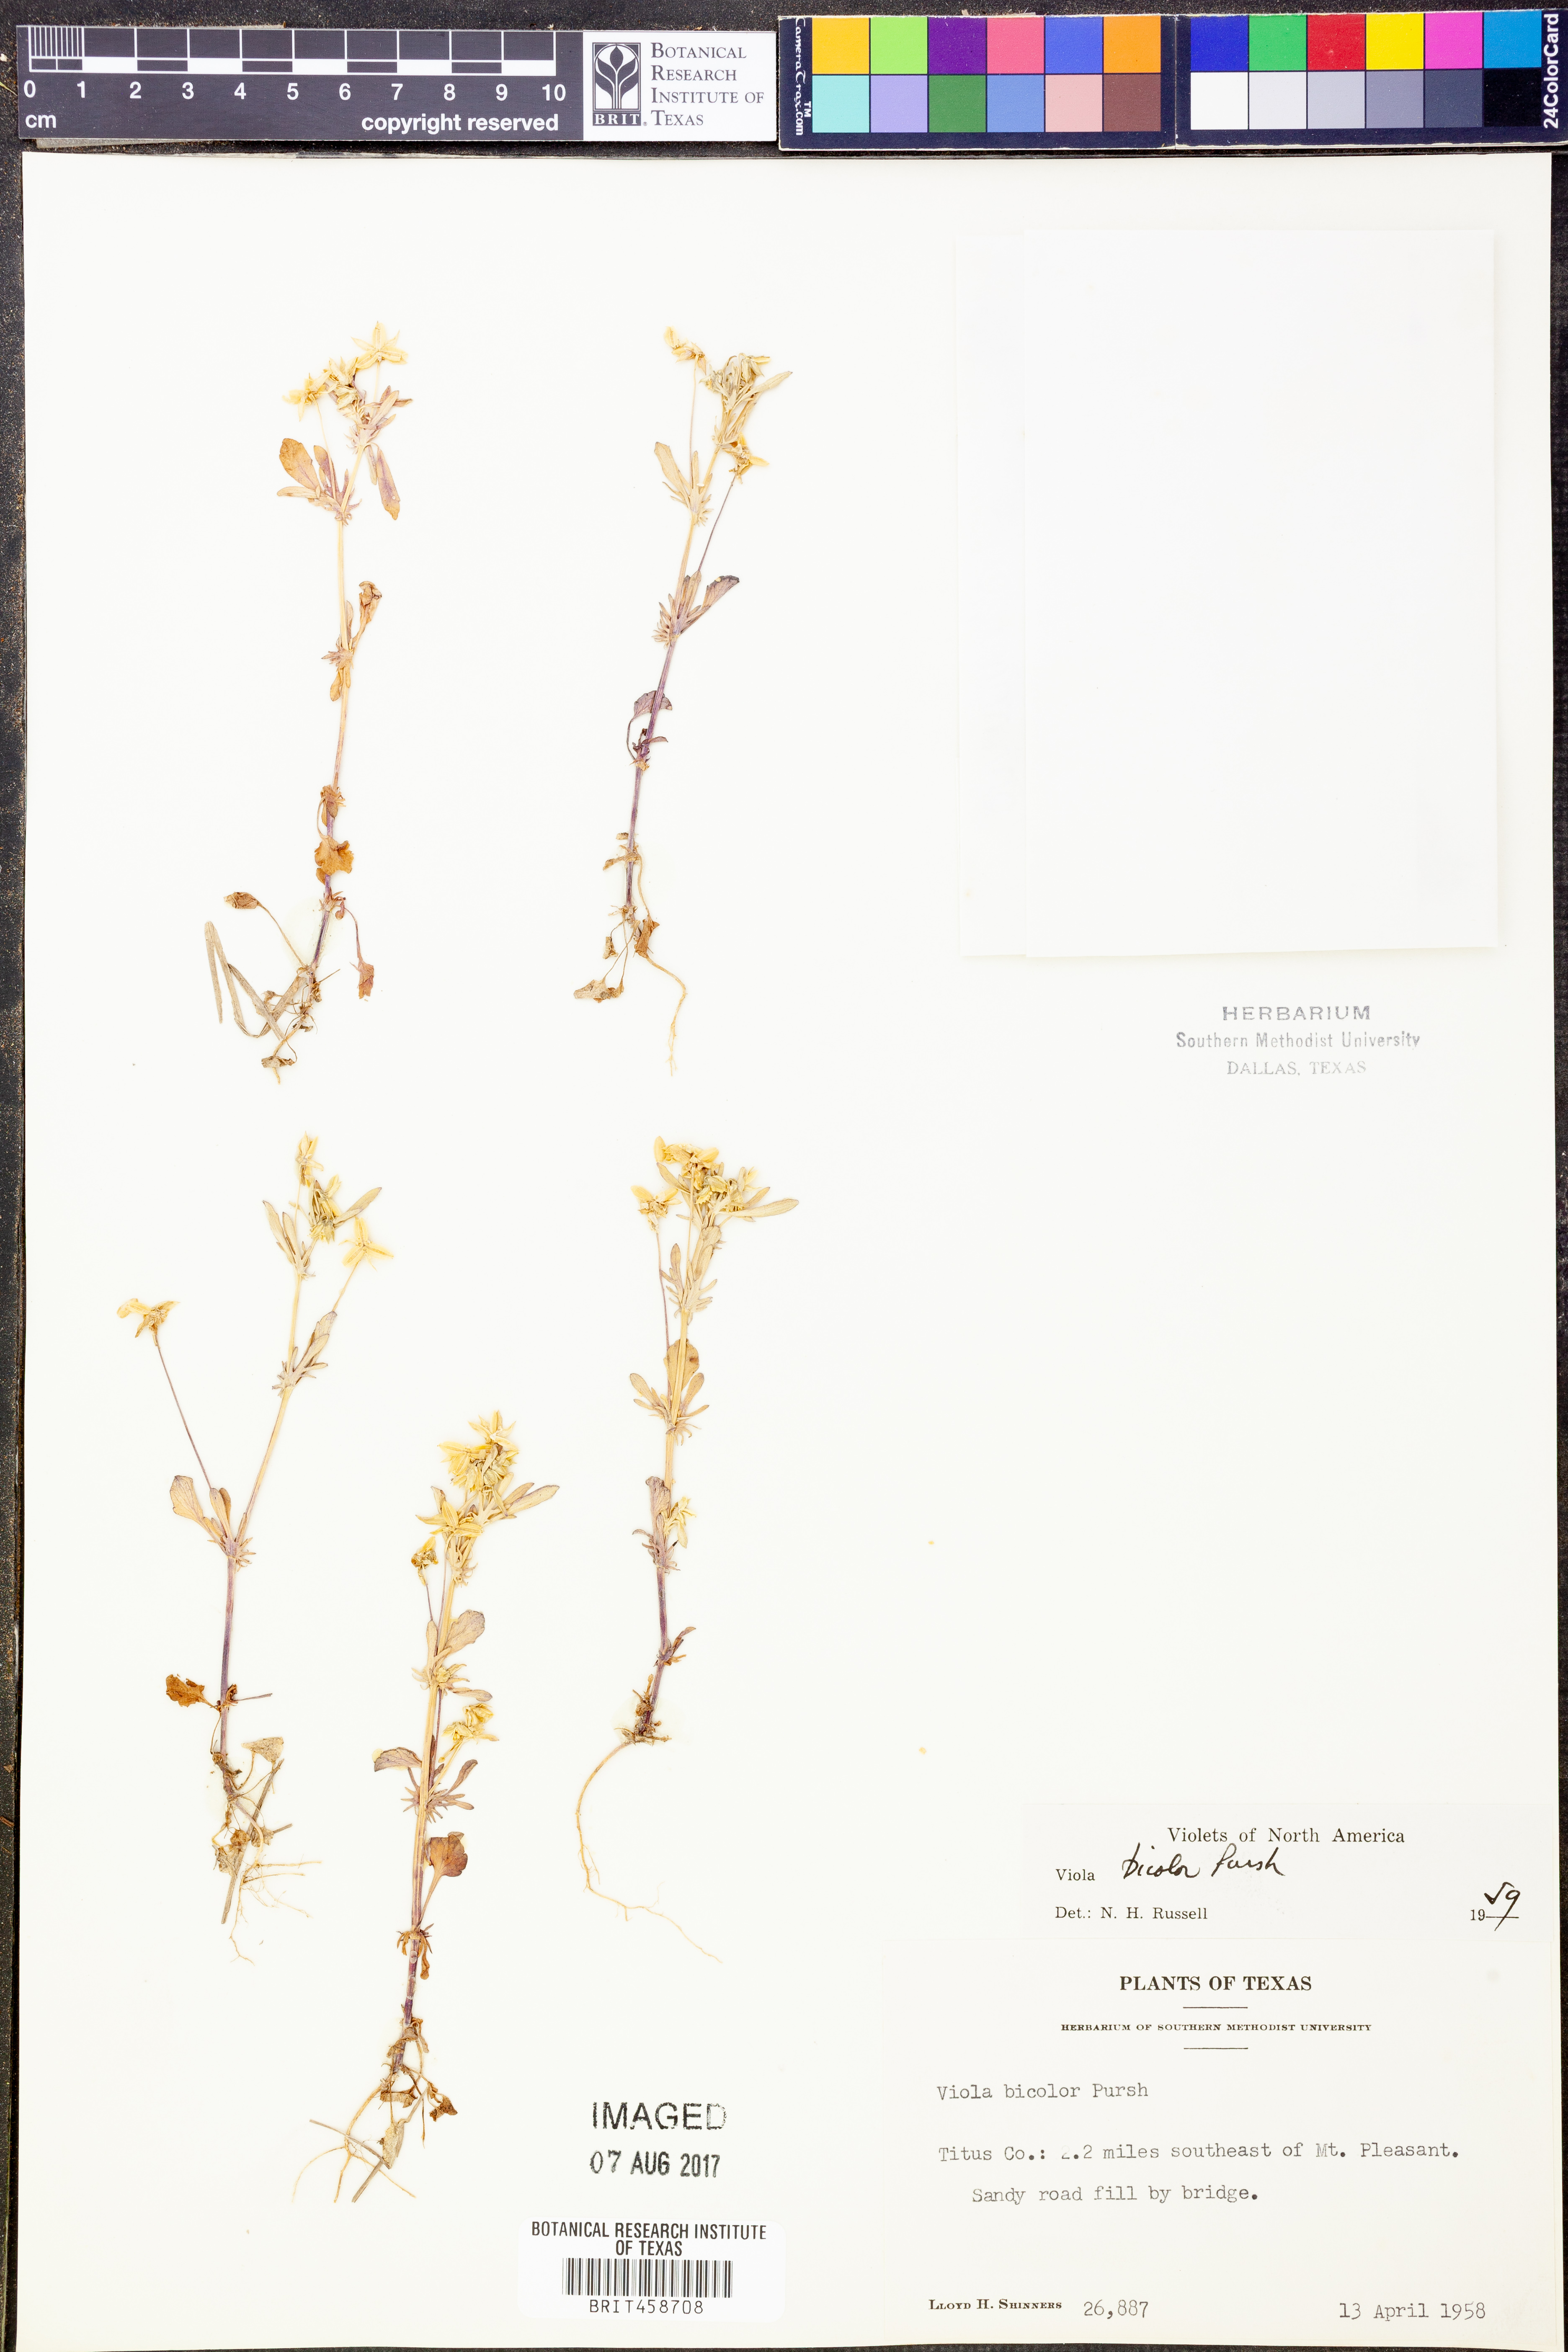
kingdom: Plantae
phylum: Tracheophyta
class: Magnoliopsida
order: Malpighiales
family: Violaceae
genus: Viola
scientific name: Viola rafinesquei
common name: American field pansy
